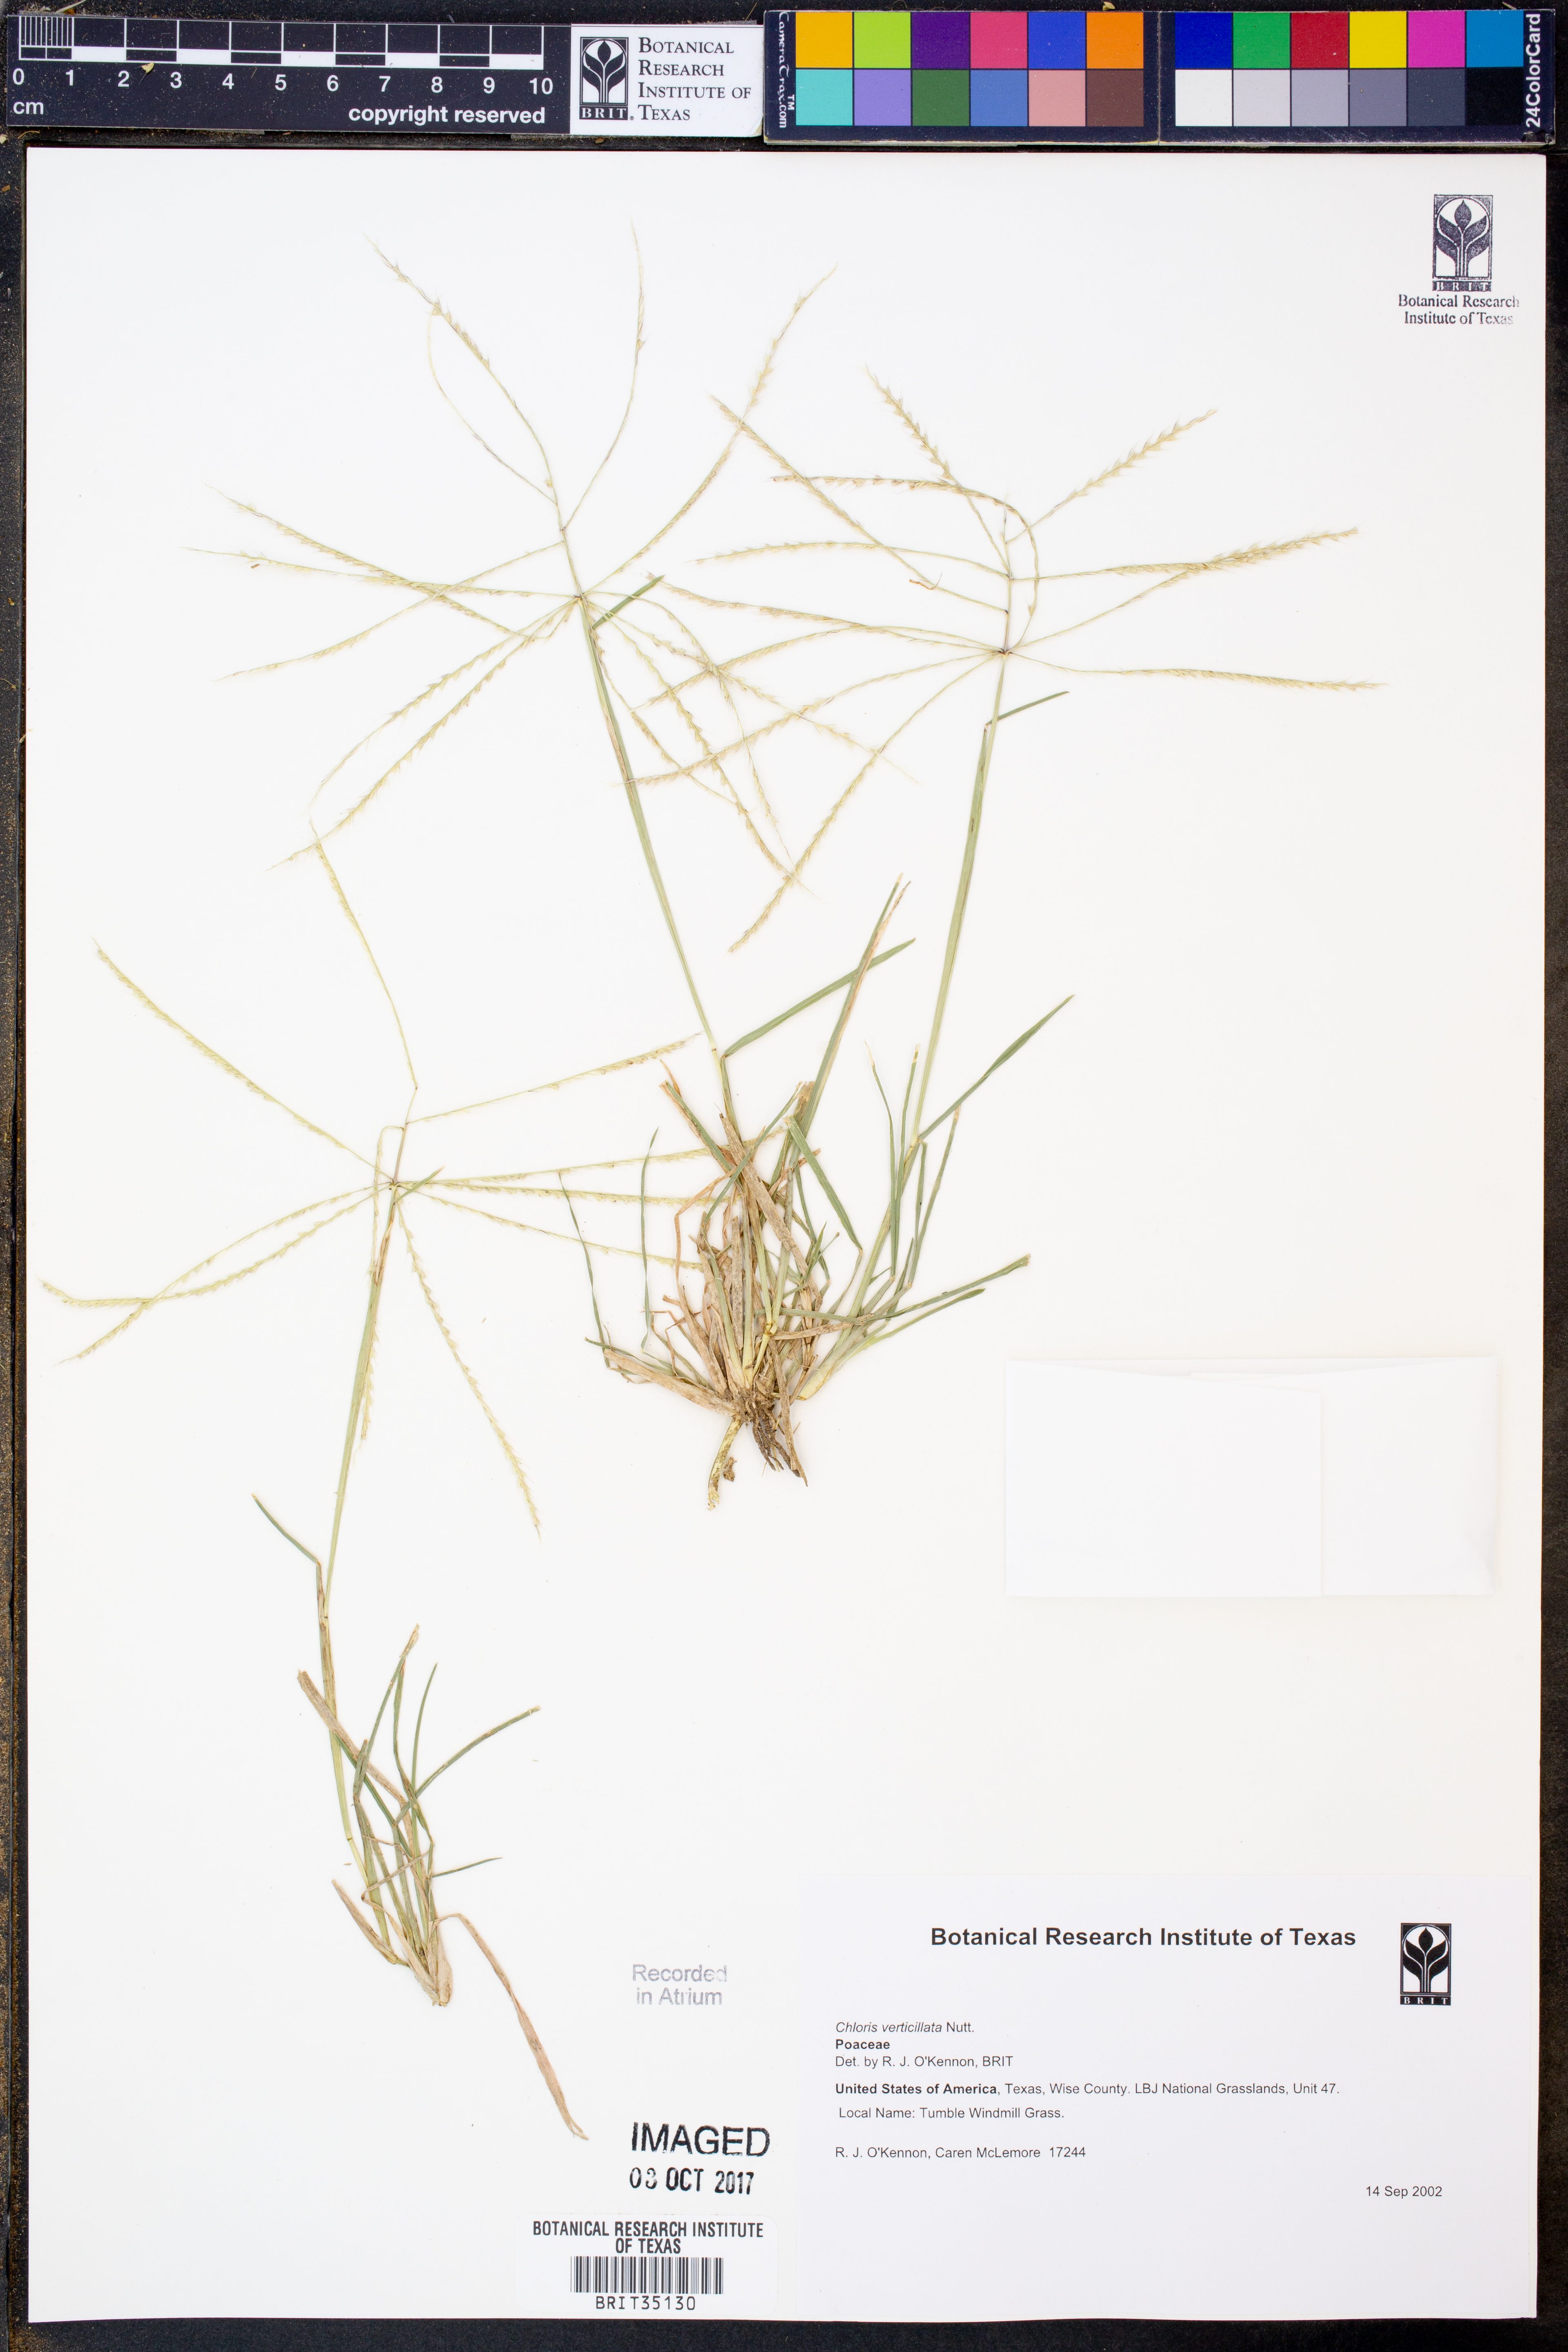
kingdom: Plantae
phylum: Tracheophyta
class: Liliopsida
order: Poales
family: Poaceae
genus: Chloris
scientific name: Chloris verticillata
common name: Tumble windmill grass
